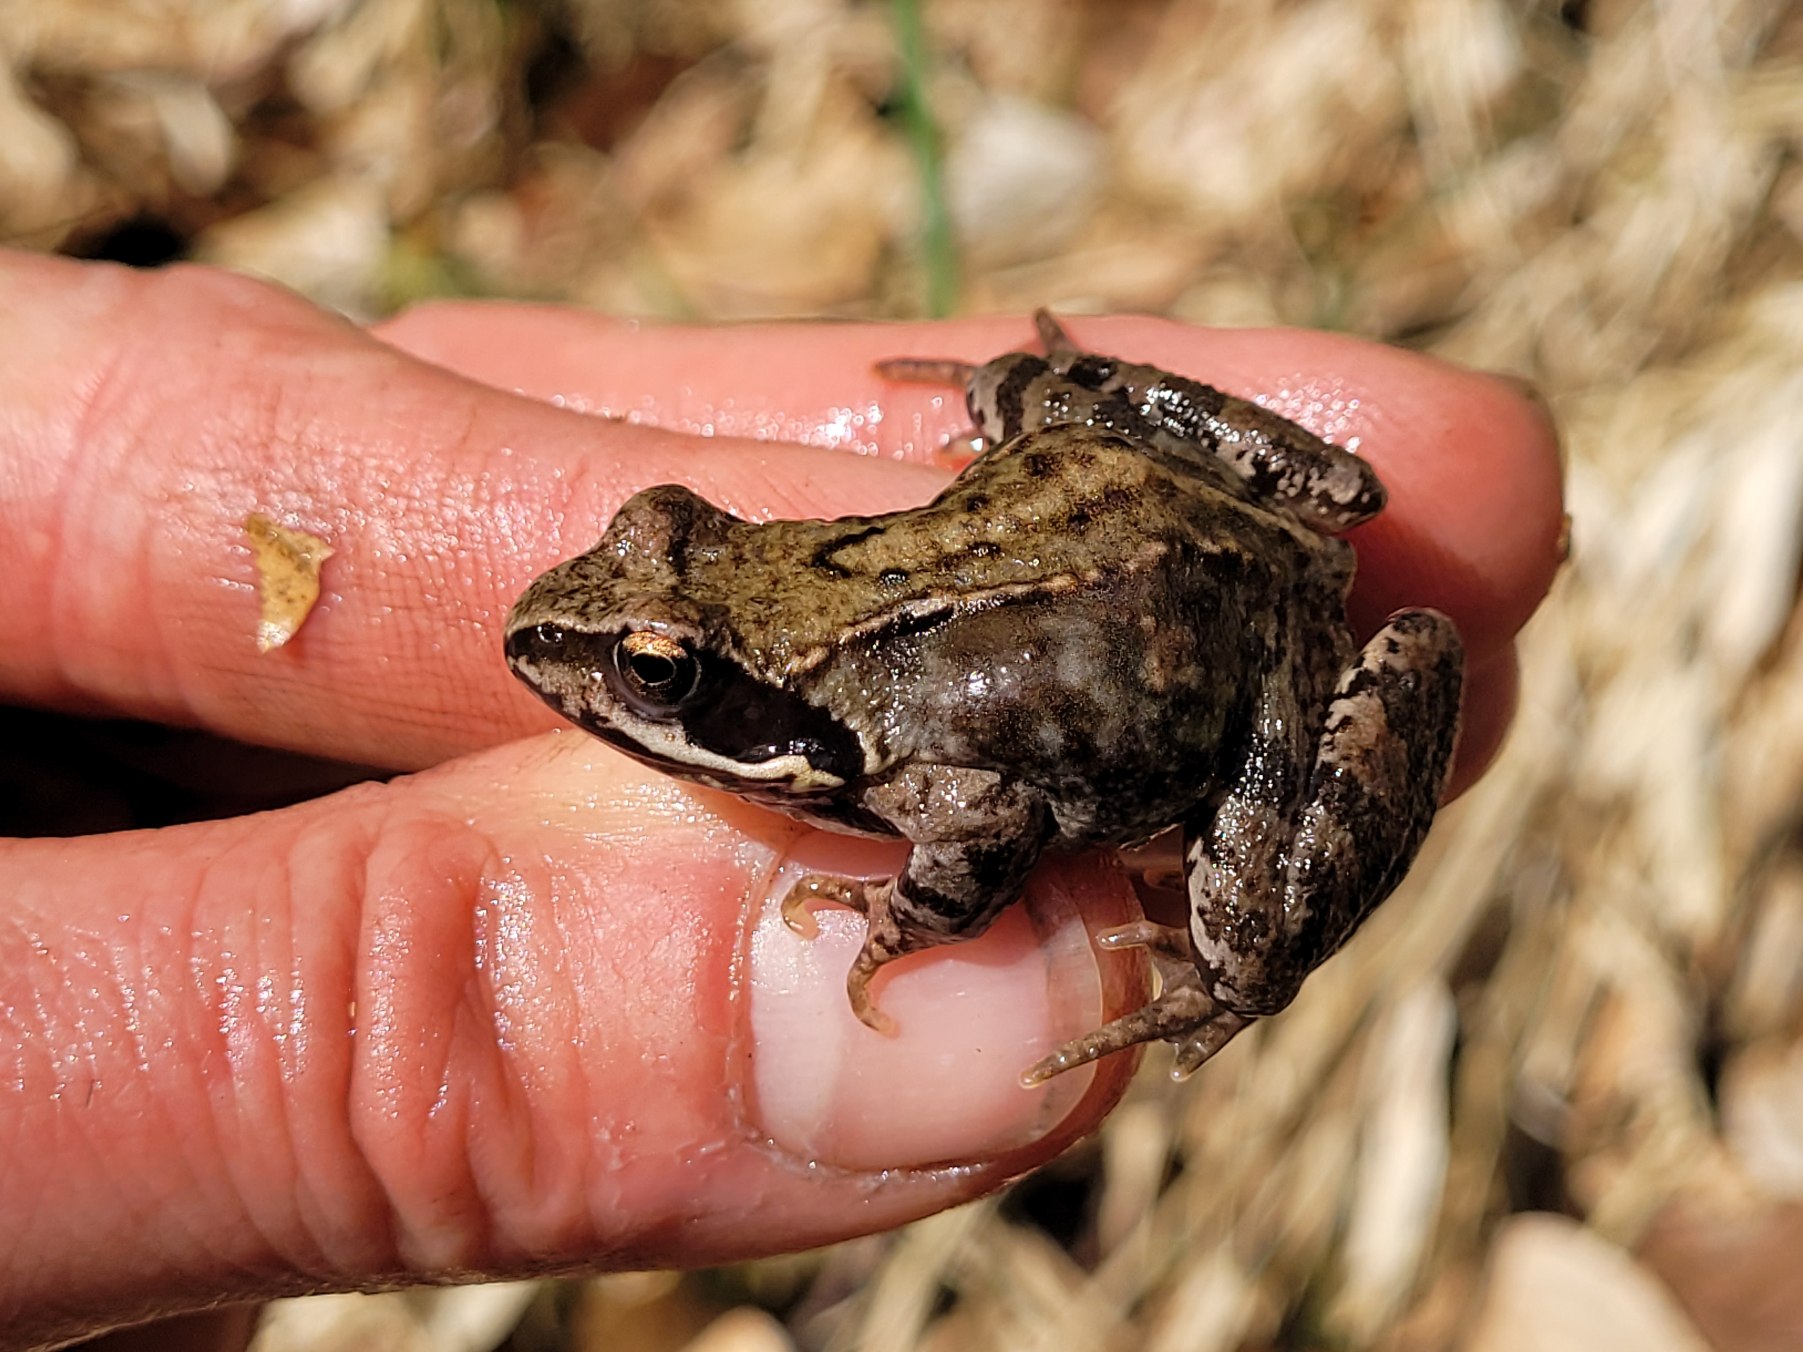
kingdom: Animalia
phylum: Chordata
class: Amphibia
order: Anura
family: Ranidae
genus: Rana
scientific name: Rana temporaria
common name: Butsnudet frø
